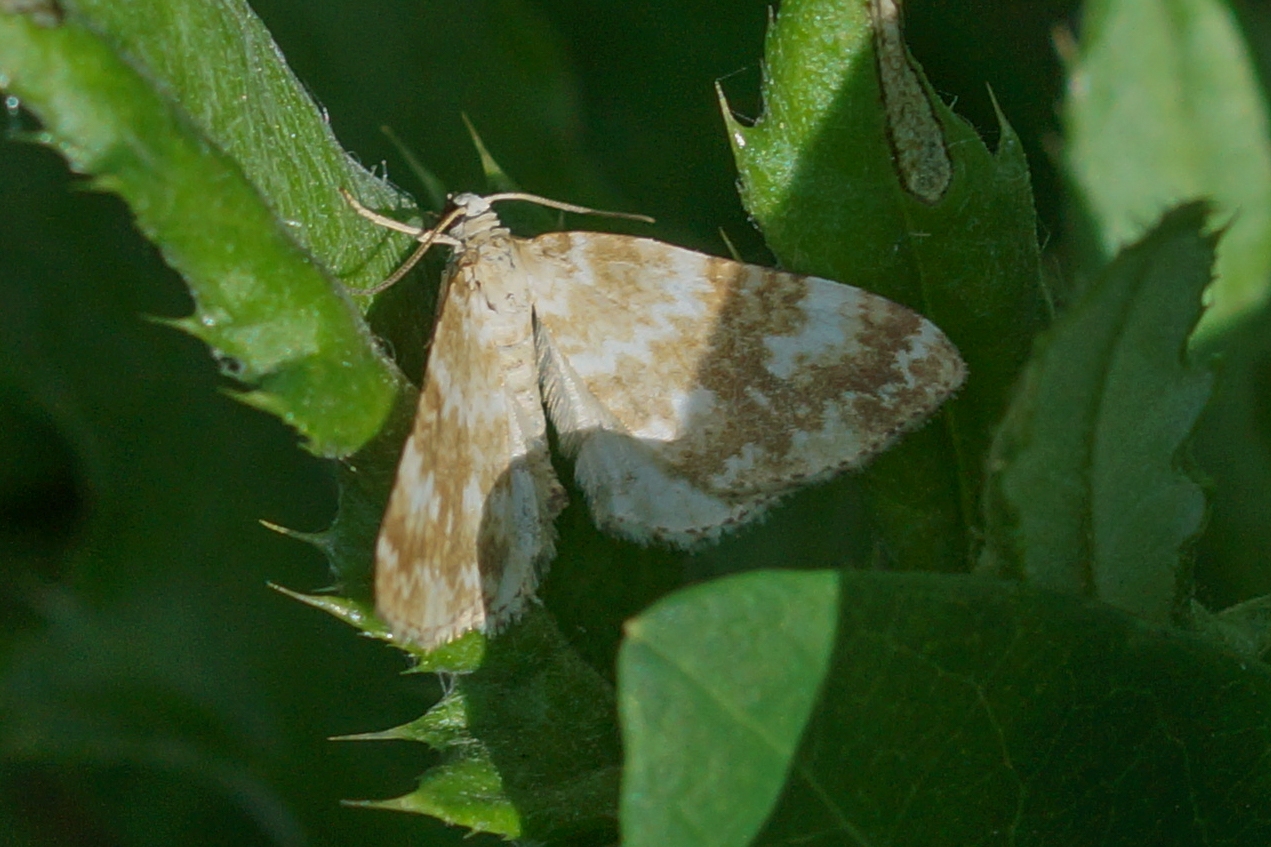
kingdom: Animalia
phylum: Arthropoda
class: Insecta
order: Lepidoptera
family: Geometridae
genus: Perizoma
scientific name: Perizoma flavofasciata
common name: Brunflammet bladmåler
